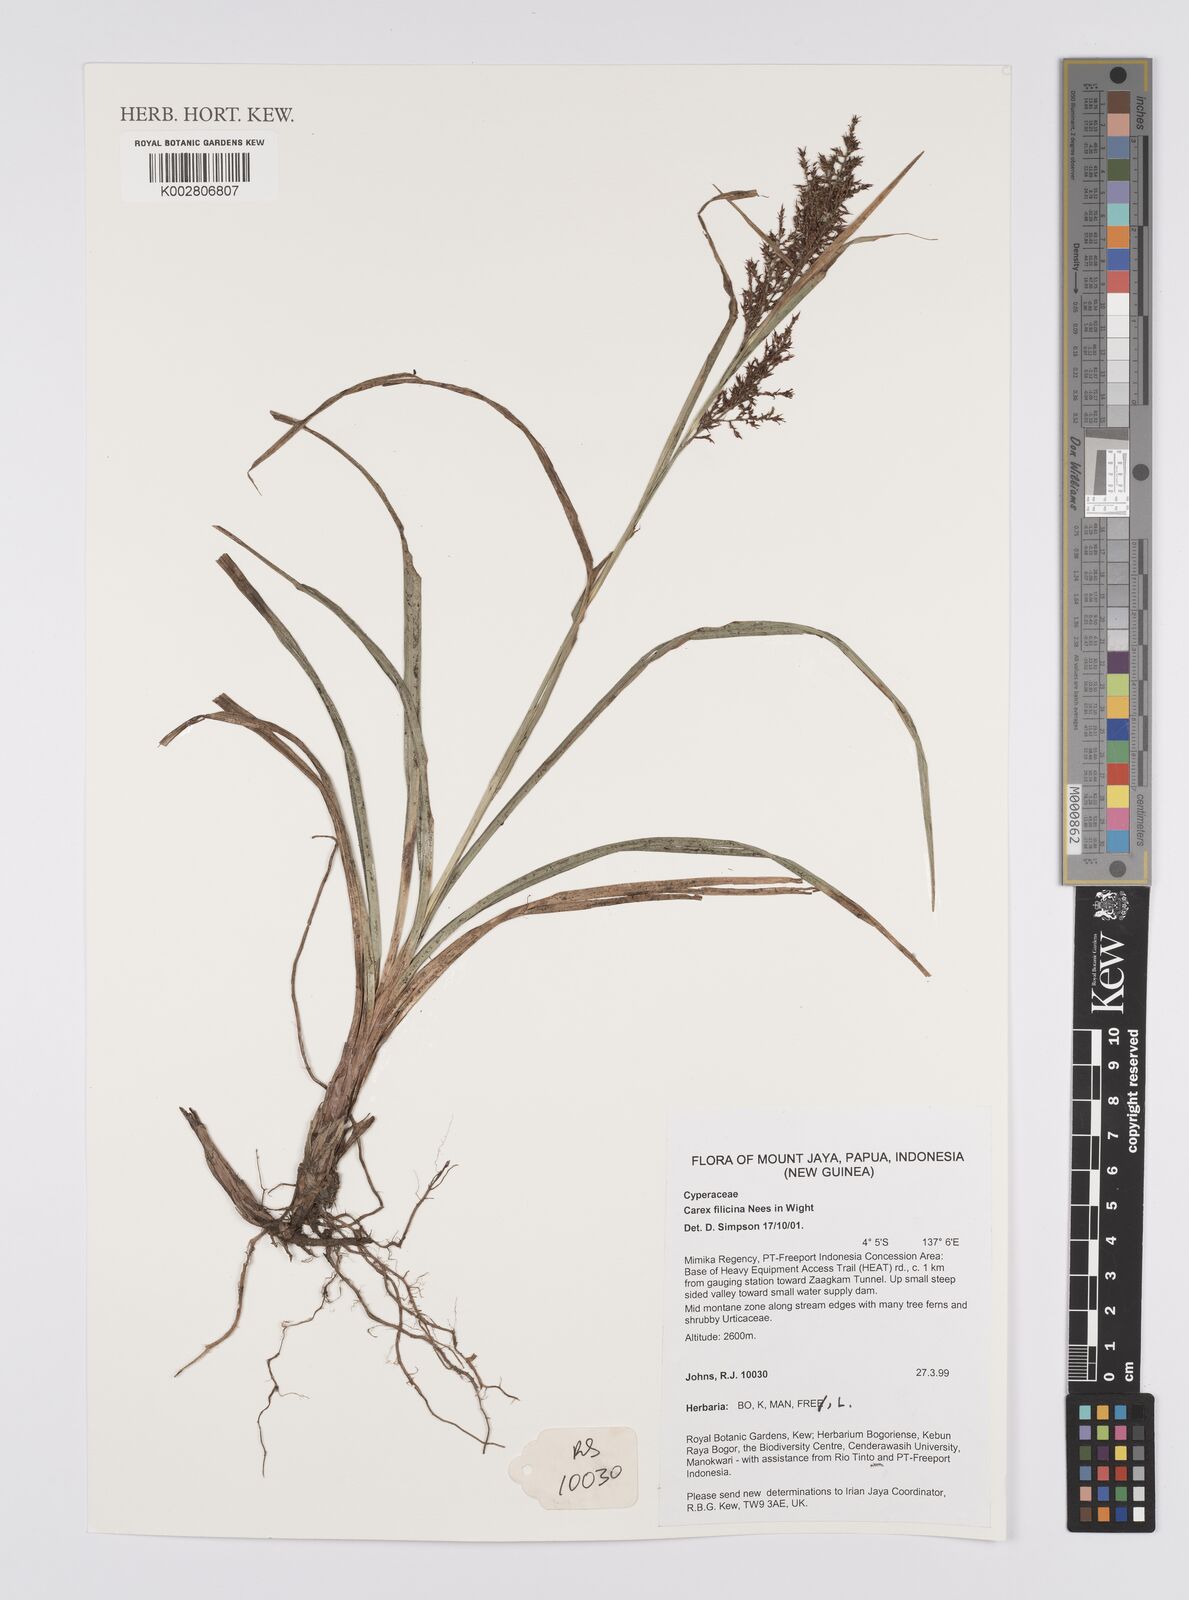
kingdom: Plantae
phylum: Tracheophyta
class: Liliopsida
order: Poales
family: Cyperaceae
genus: Carex
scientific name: Carex filicina
